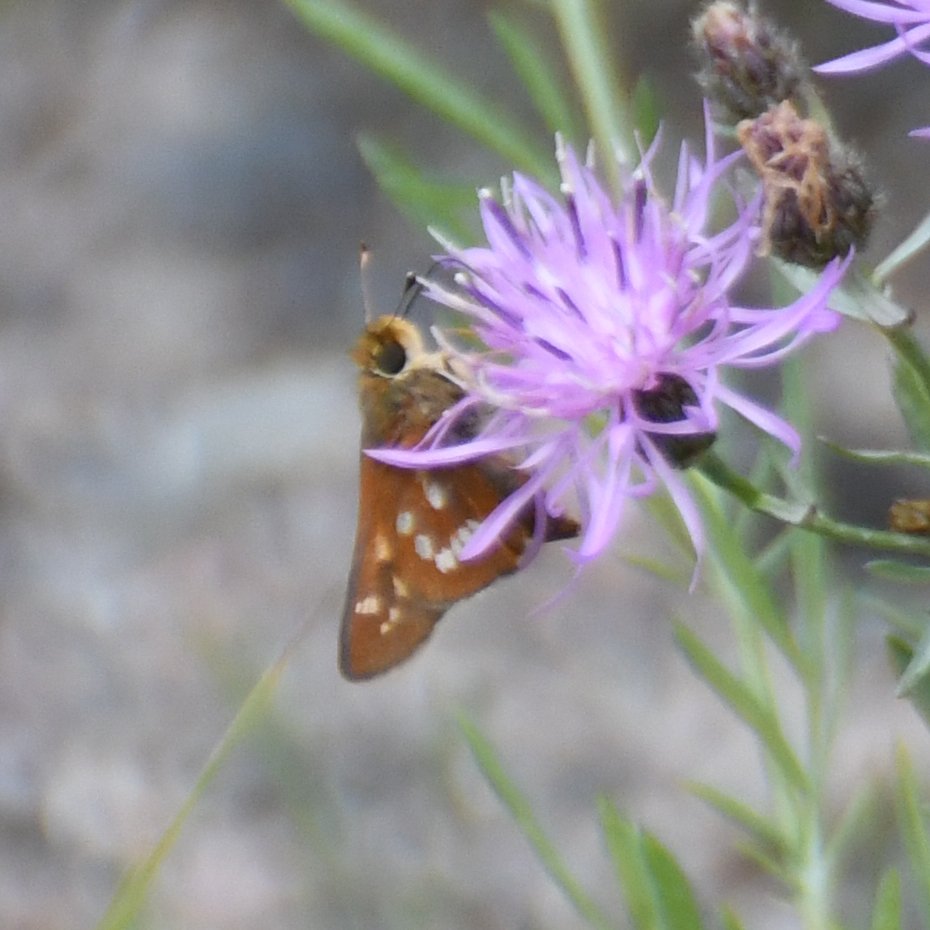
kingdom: Animalia
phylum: Arthropoda
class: Insecta
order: Lepidoptera
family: Hesperiidae
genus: Hesperia
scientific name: Hesperia leonardus
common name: Leonard's Skipper
